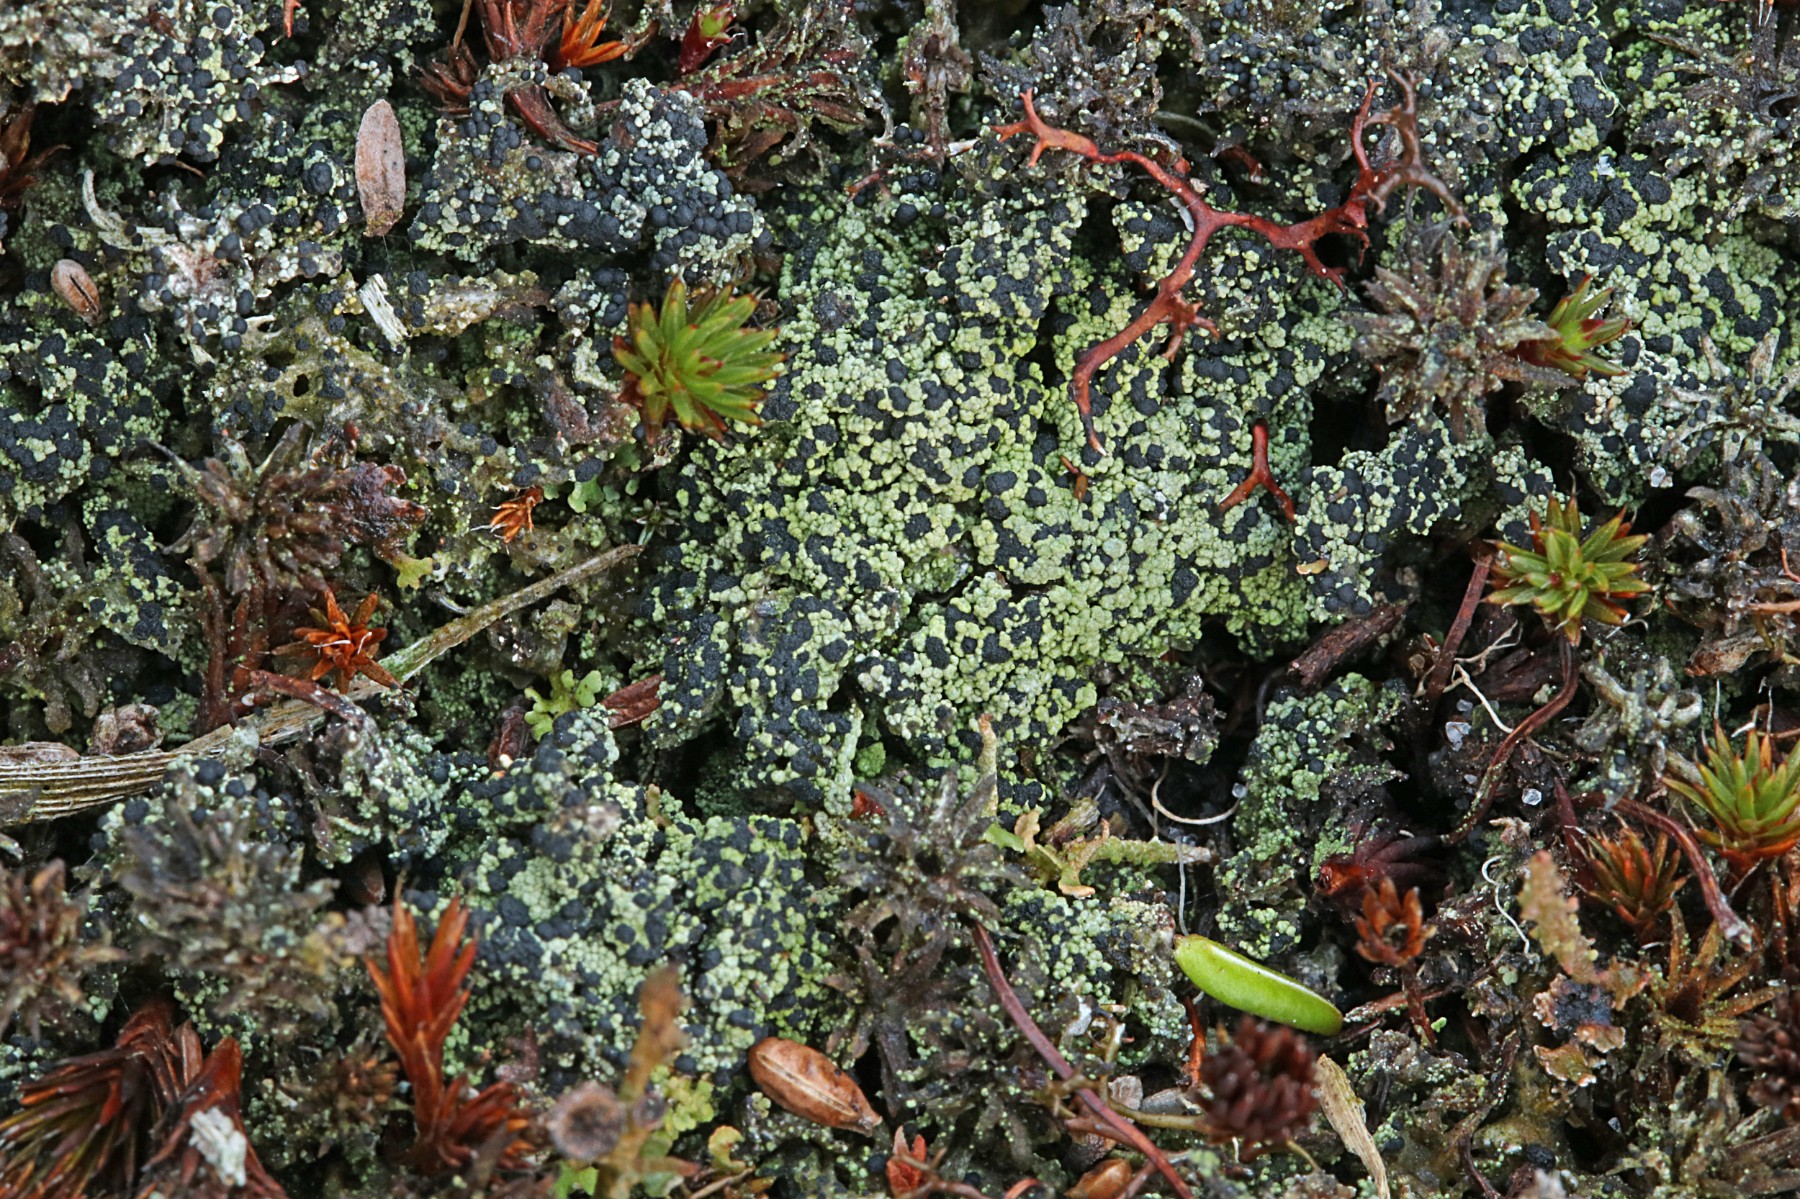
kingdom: Fungi
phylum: Ascomycota
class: Lecanoromycetes
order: Lecanorales
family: Byssolomataceae
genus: Micarea
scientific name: Micarea lignaria
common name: tørve-knaplav
